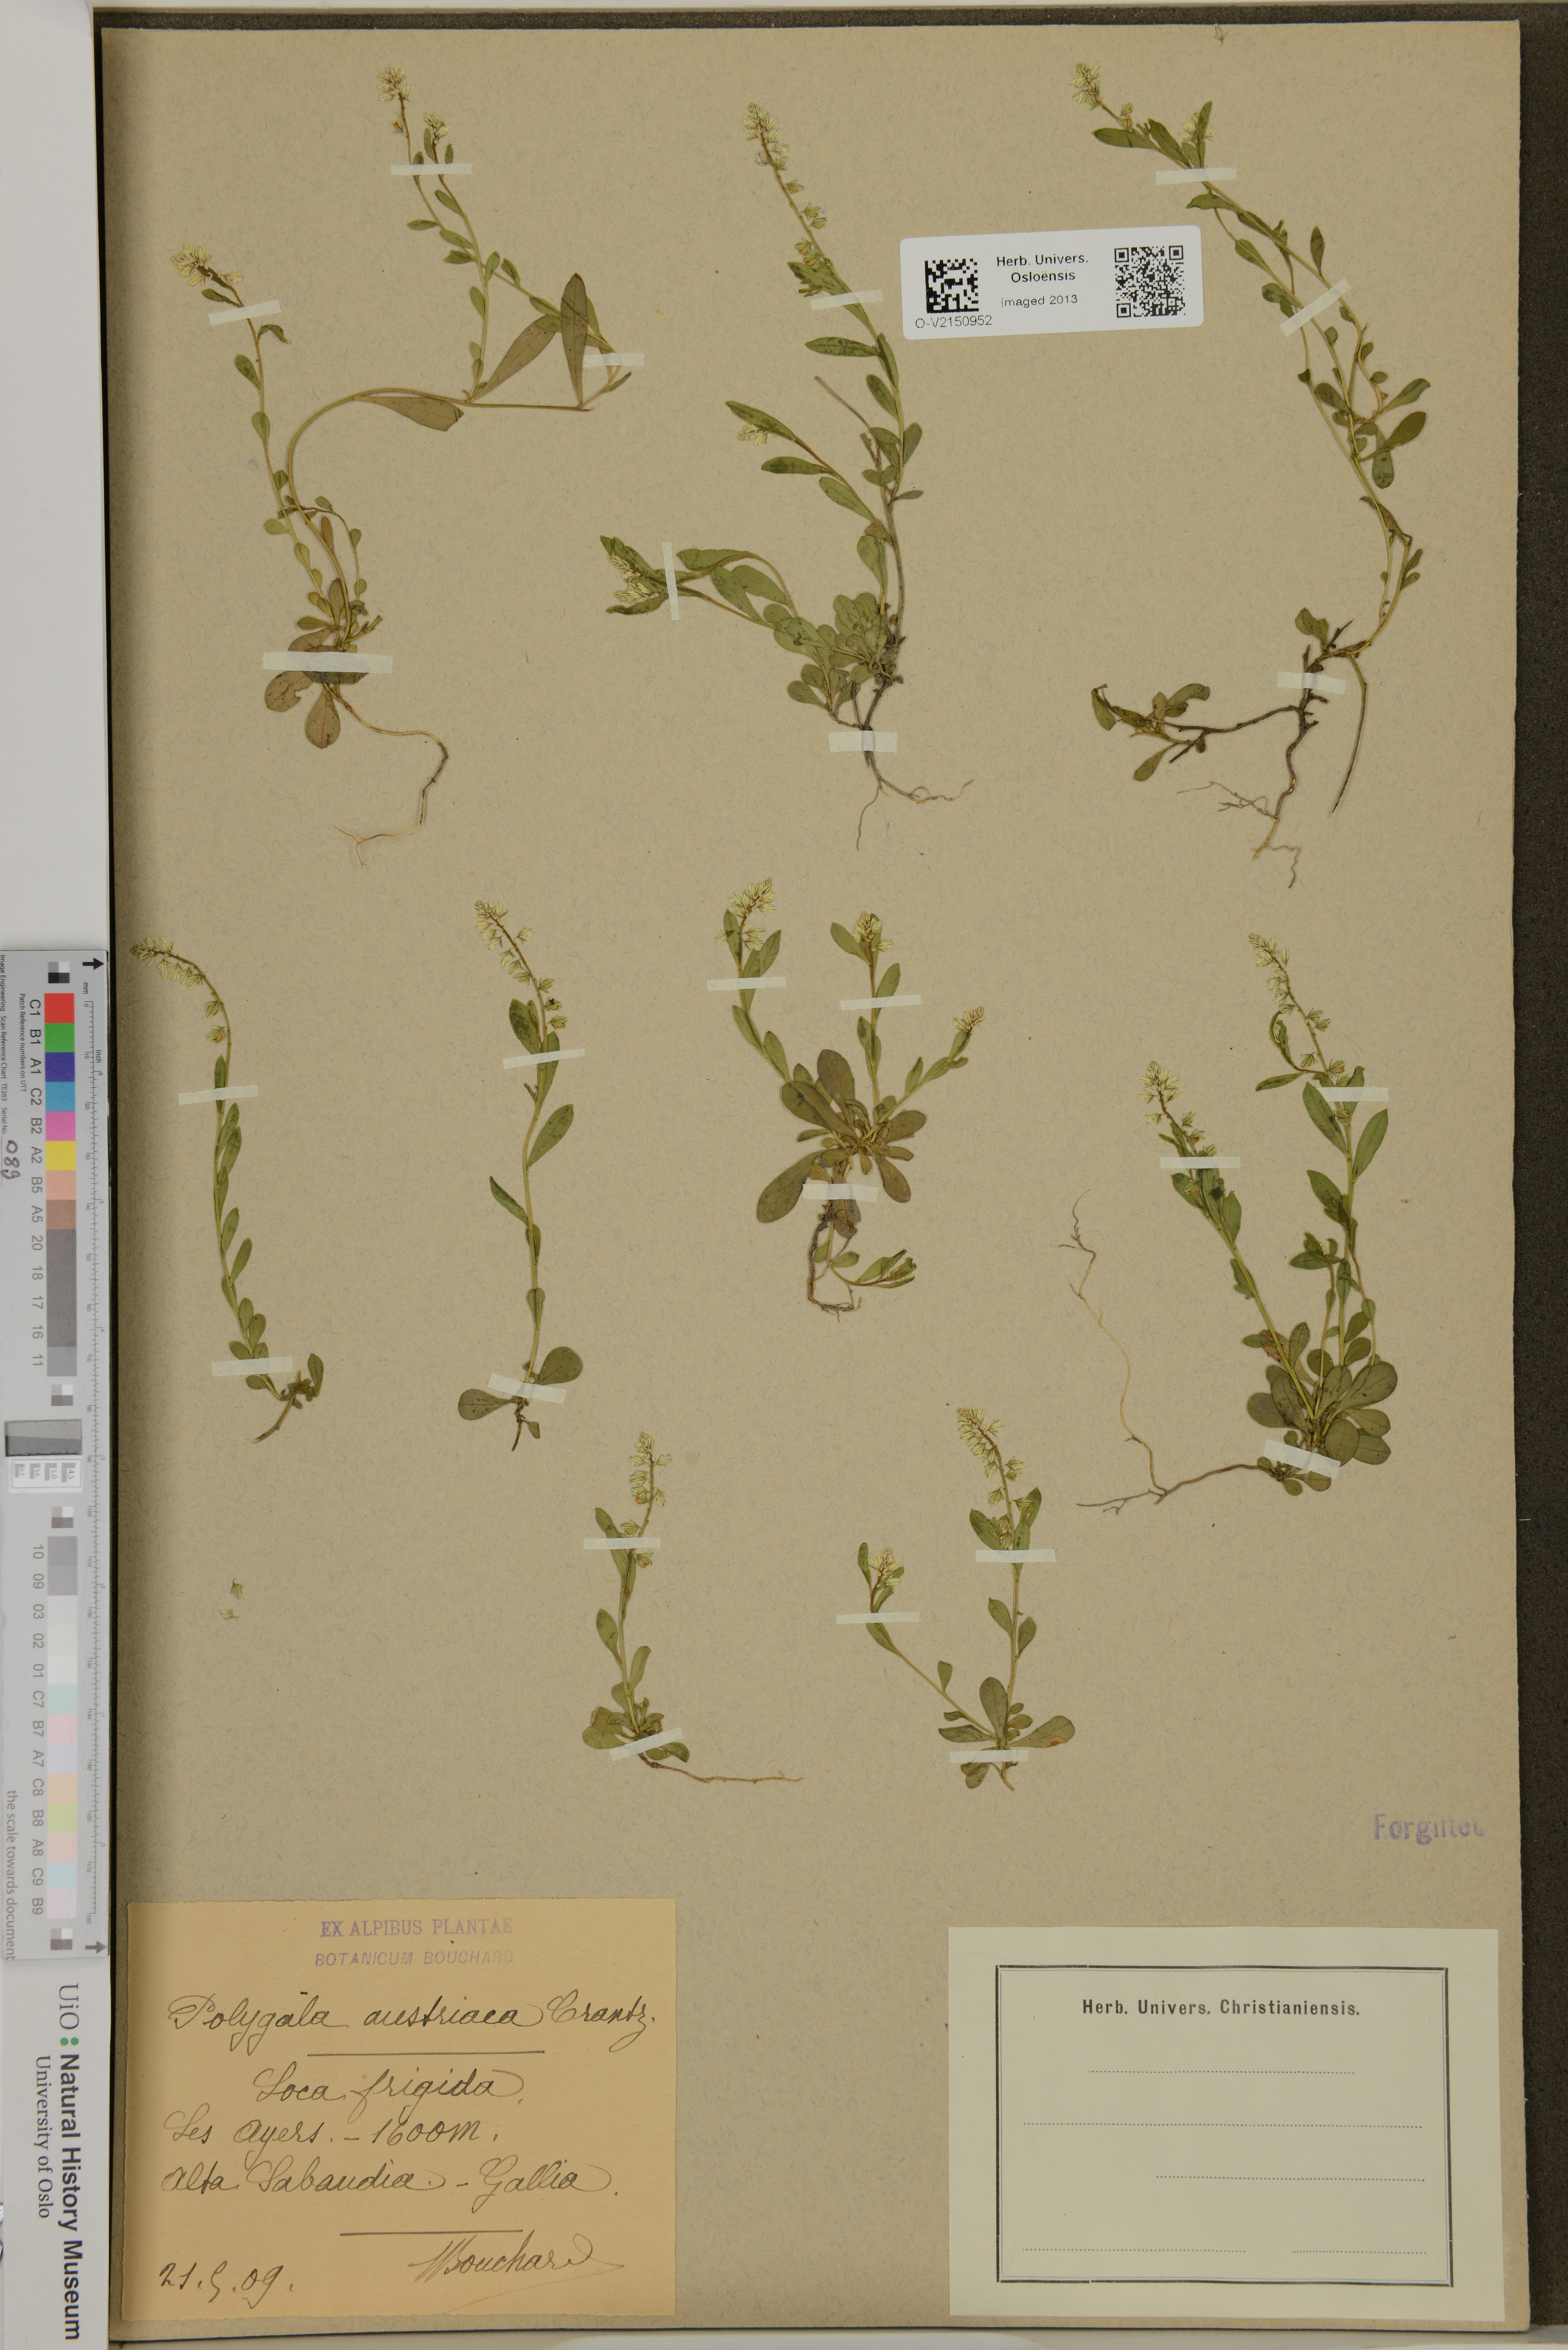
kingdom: Plantae
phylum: Tracheophyta
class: Magnoliopsida
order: Fabales
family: Polygalaceae
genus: Polygala
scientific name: Polygala amarella
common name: Dwarf milkwort
